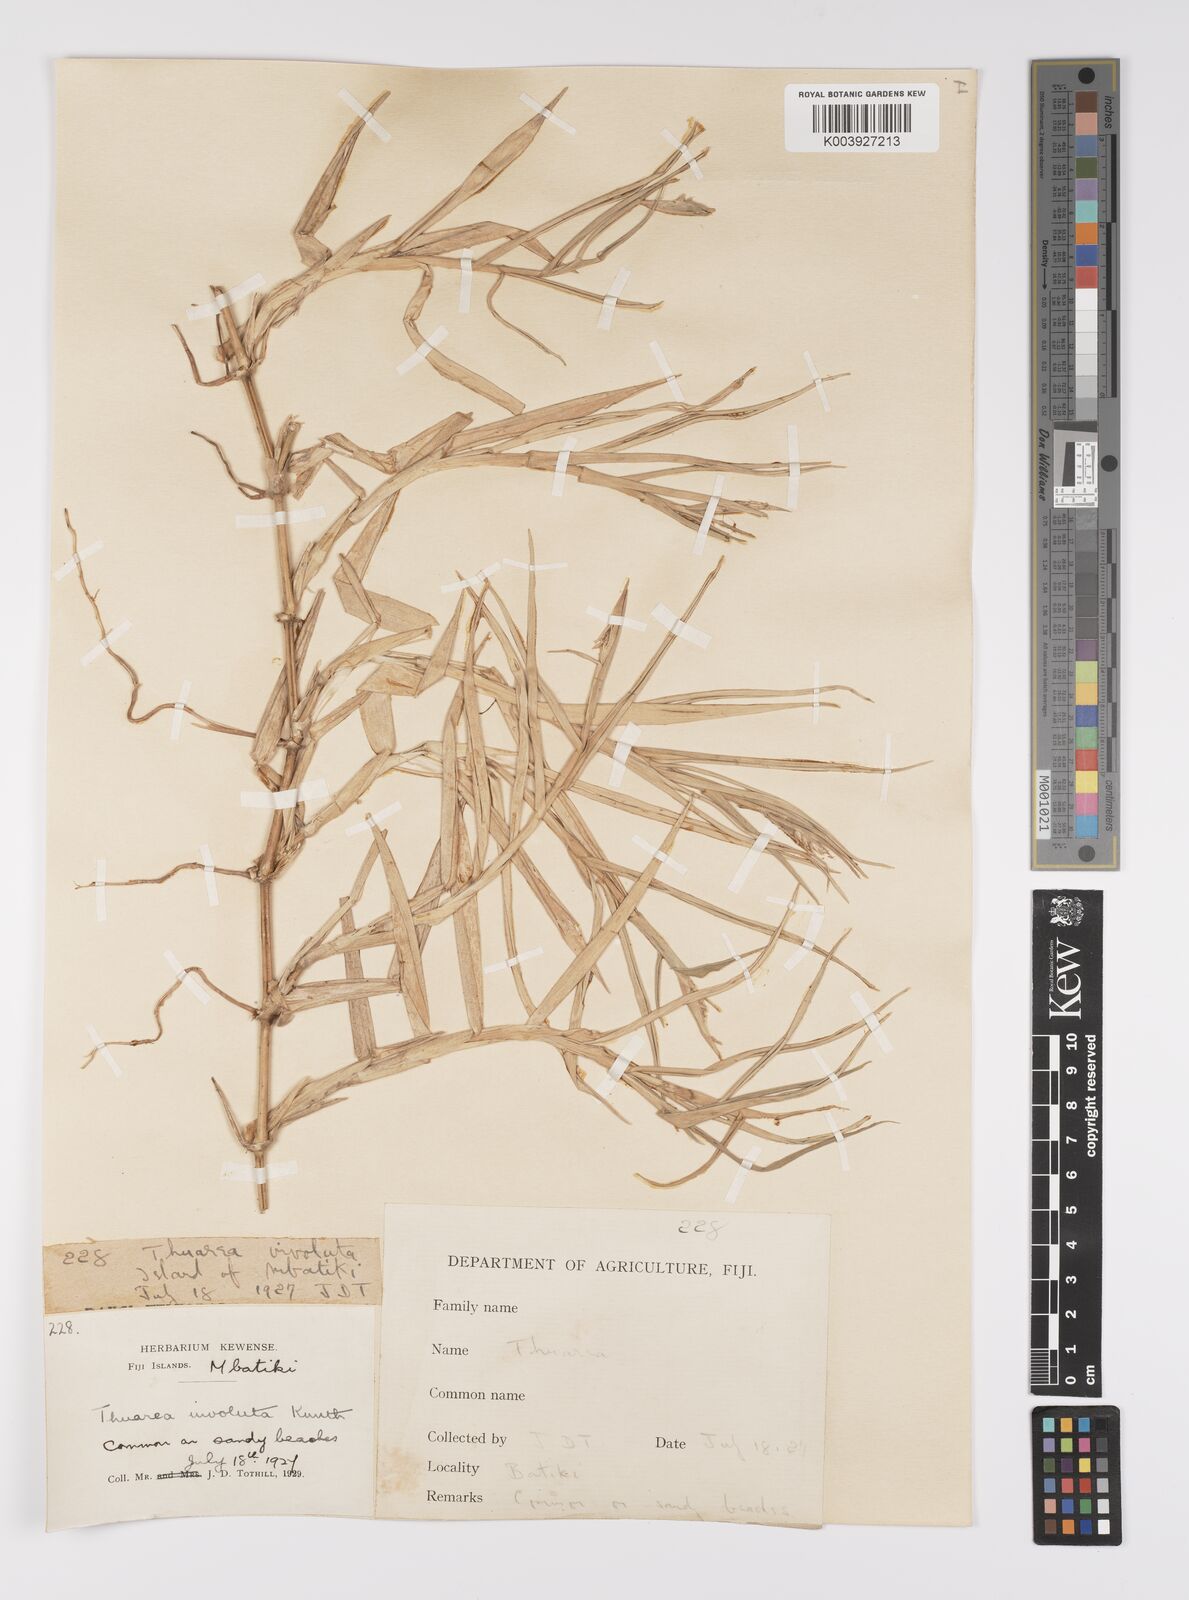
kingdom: Plantae
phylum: Tracheophyta
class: Liliopsida
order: Poales
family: Poaceae
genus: Thuarea
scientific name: Thuarea involuta
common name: Tropical beach grass
